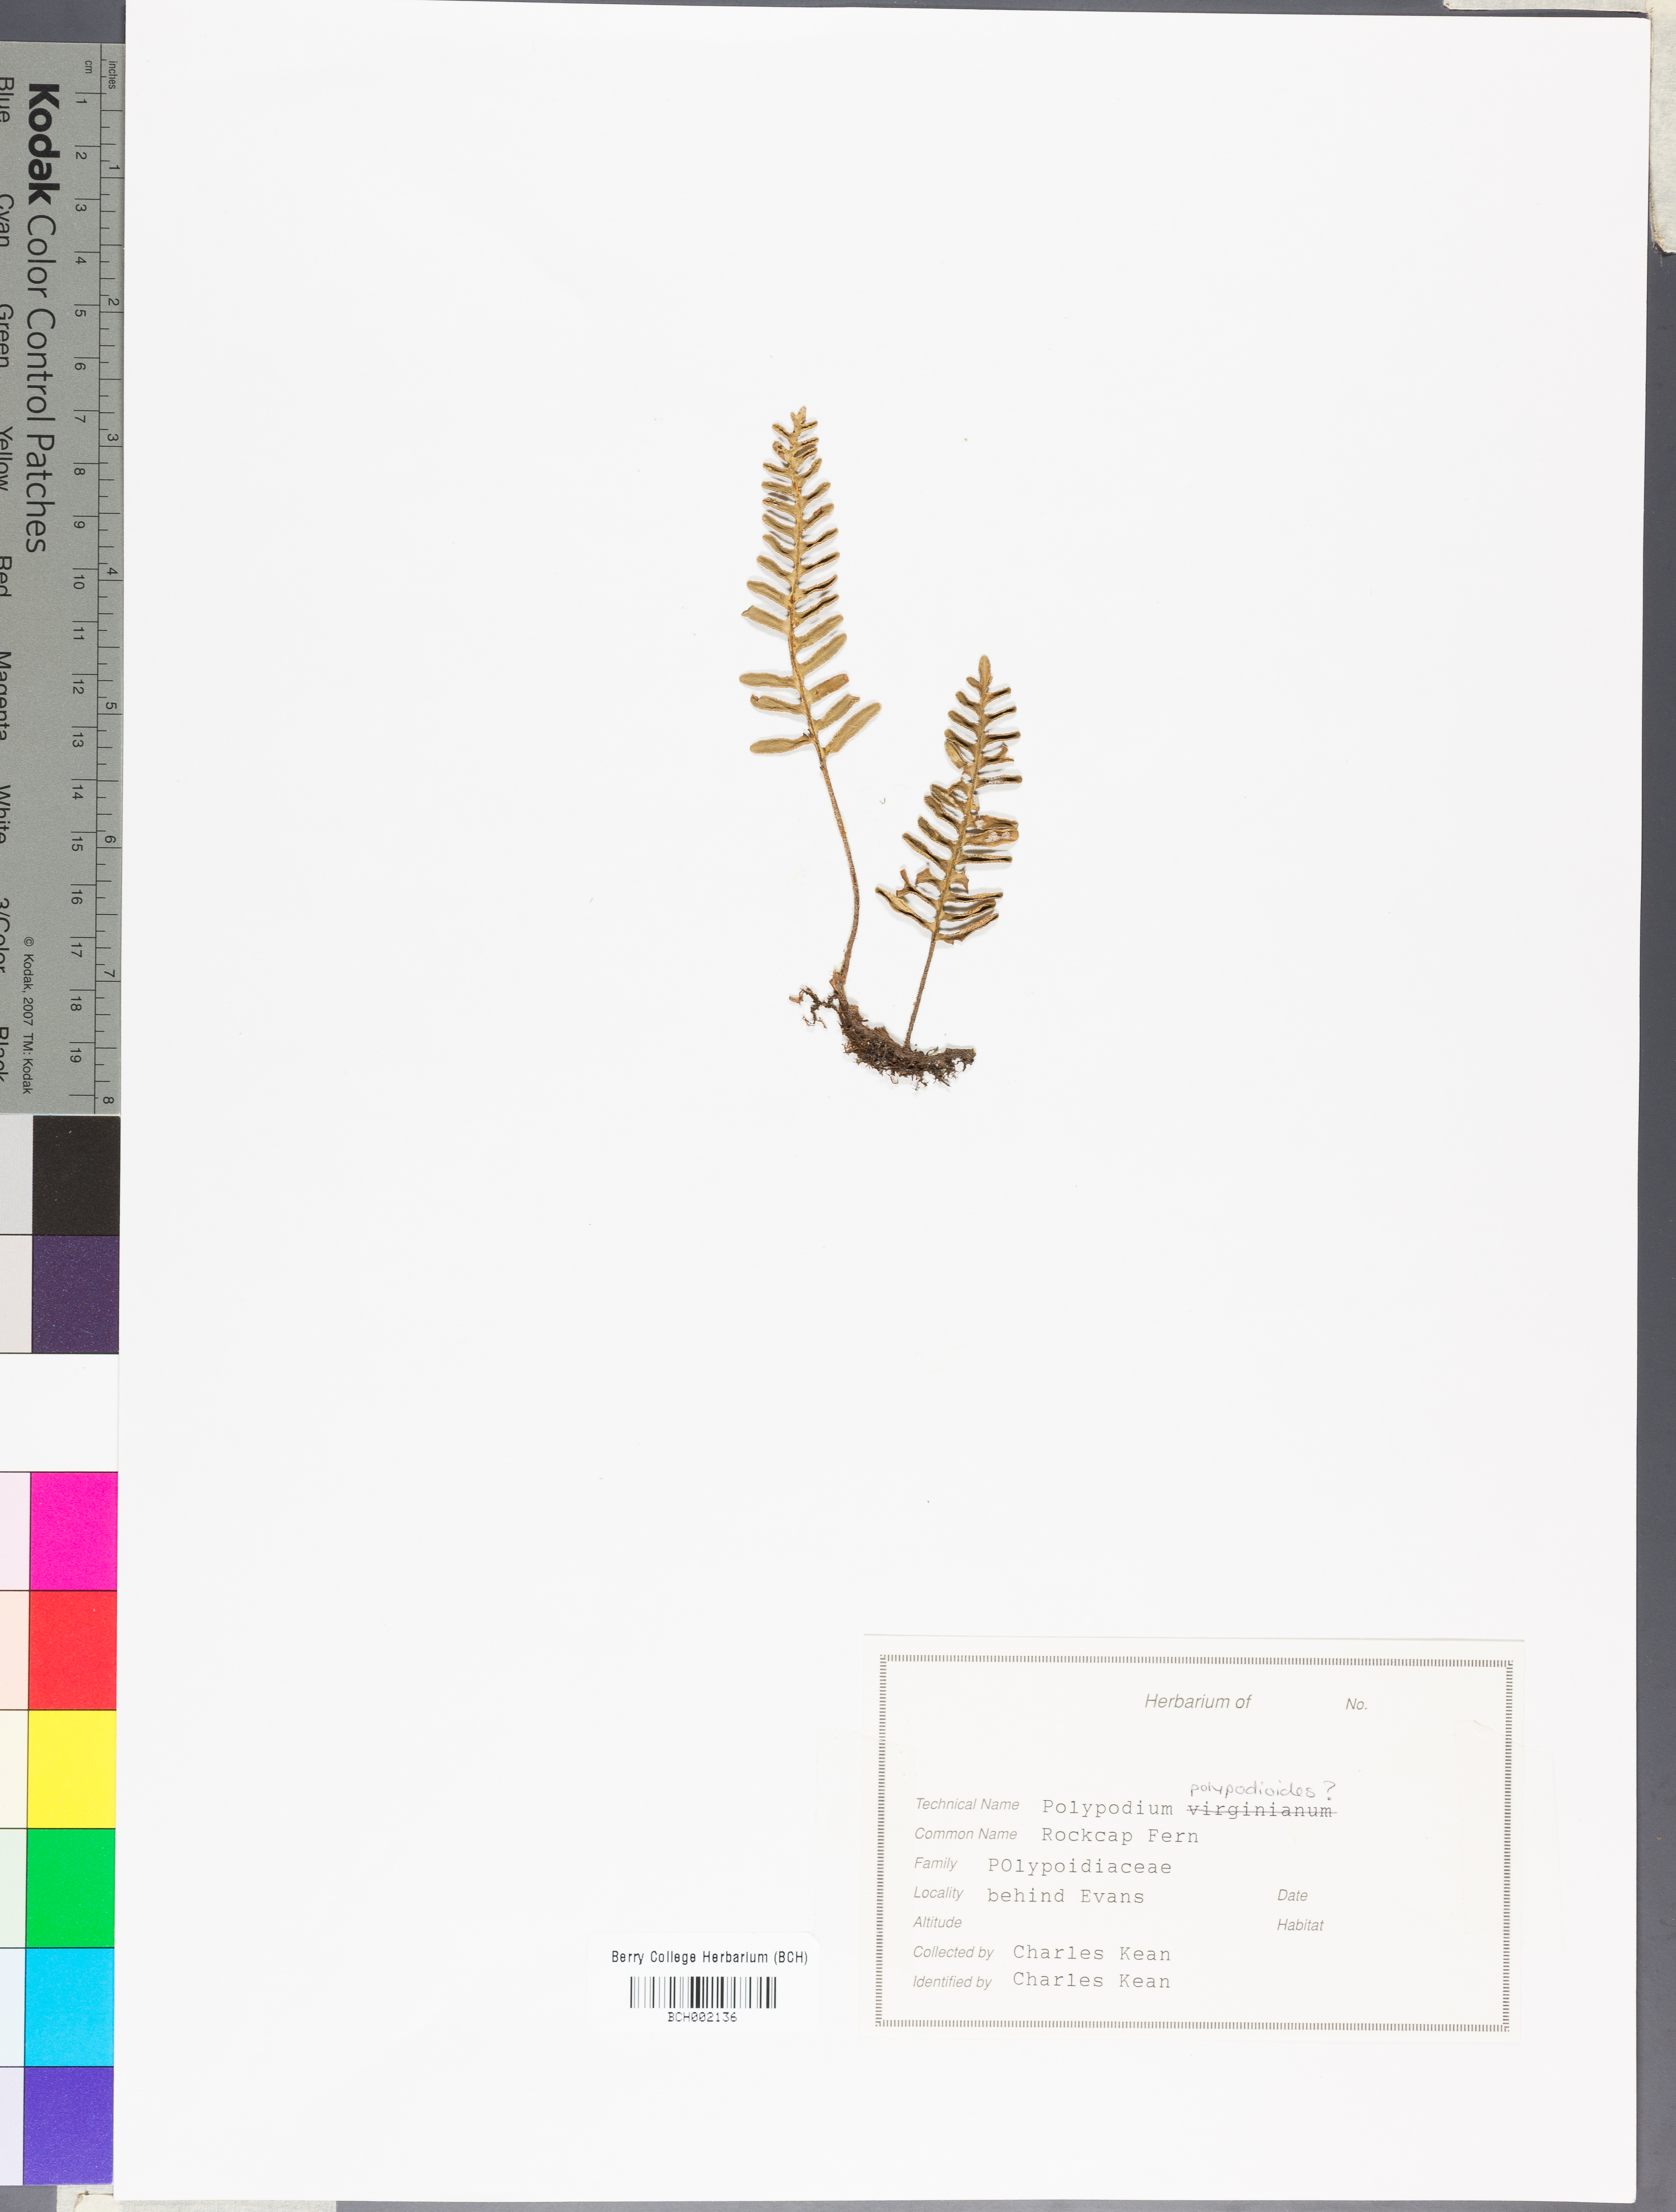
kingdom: Plantae
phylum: Tracheophyta
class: Polypodiopsida
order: Polypodiales
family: Polypodiaceae
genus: Pleopeltis
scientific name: Pleopeltis polypodioides
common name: Resurrection fern
